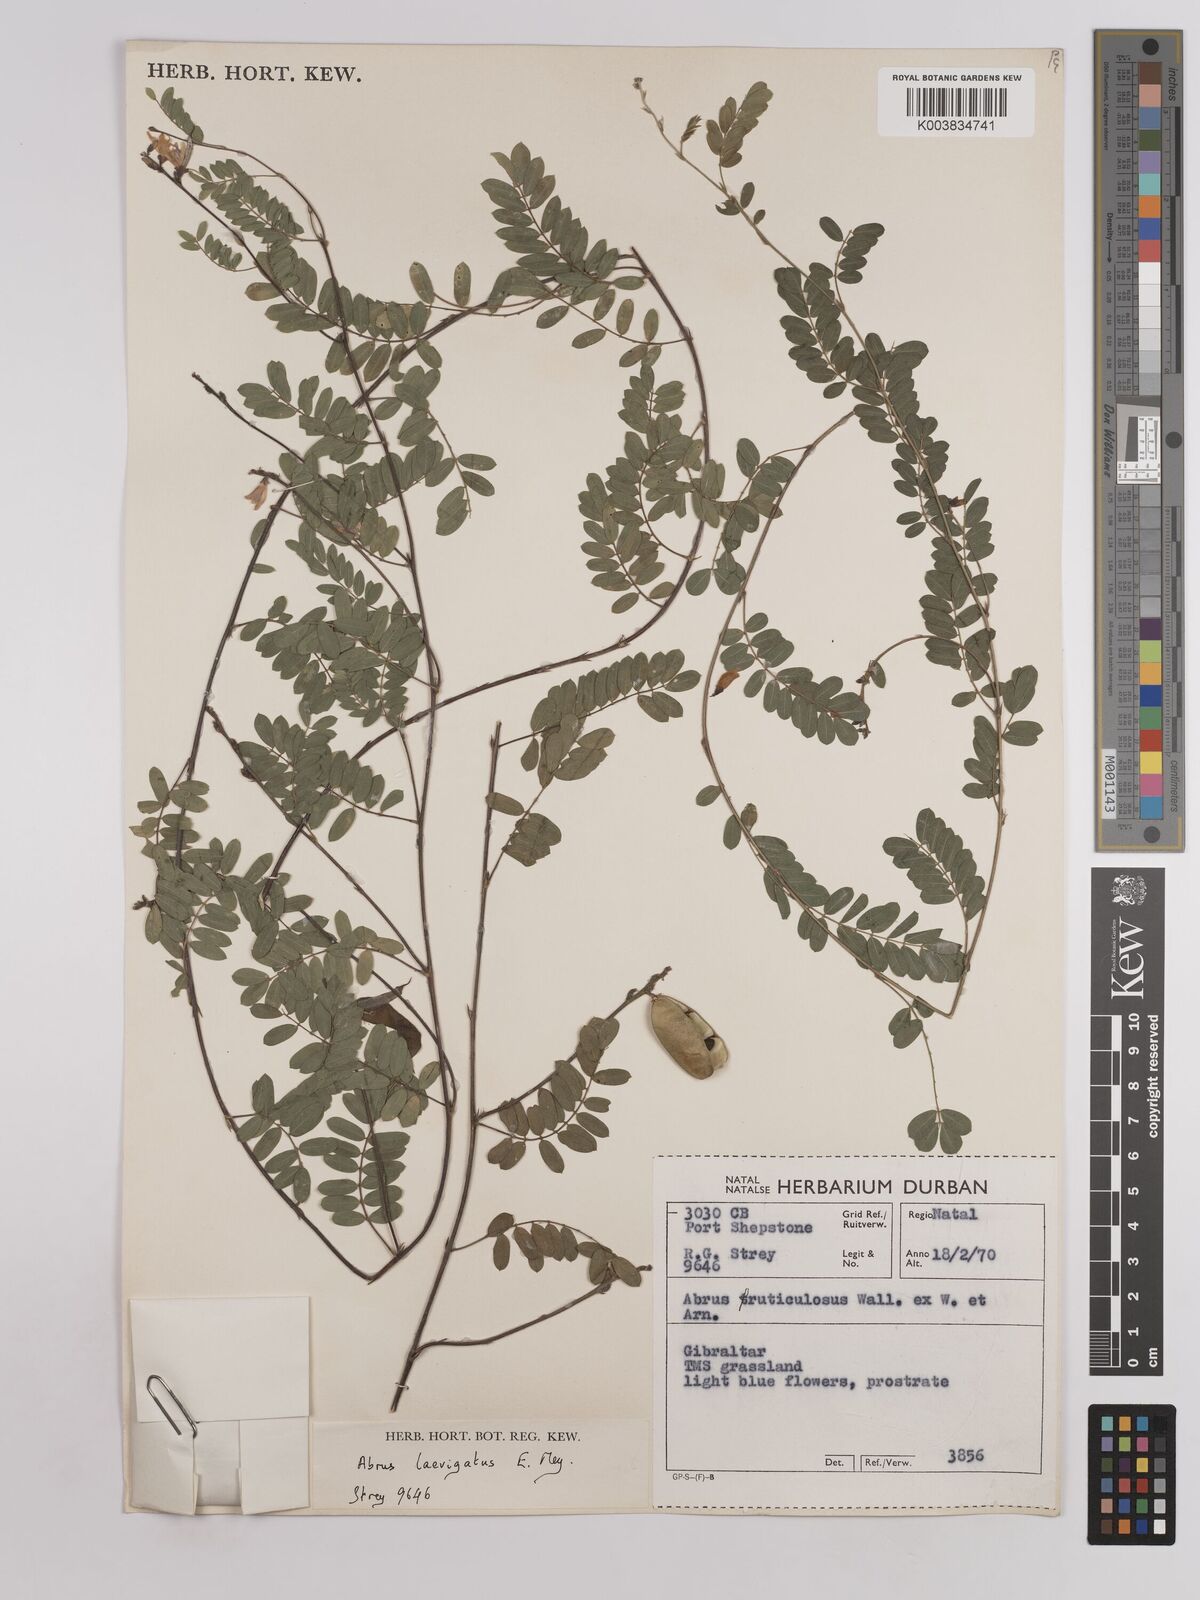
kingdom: Plantae
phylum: Tracheophyta
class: Magnoliopsida
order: Fabales
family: Fabaceae
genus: Abrus
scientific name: Abrus laevigatus
